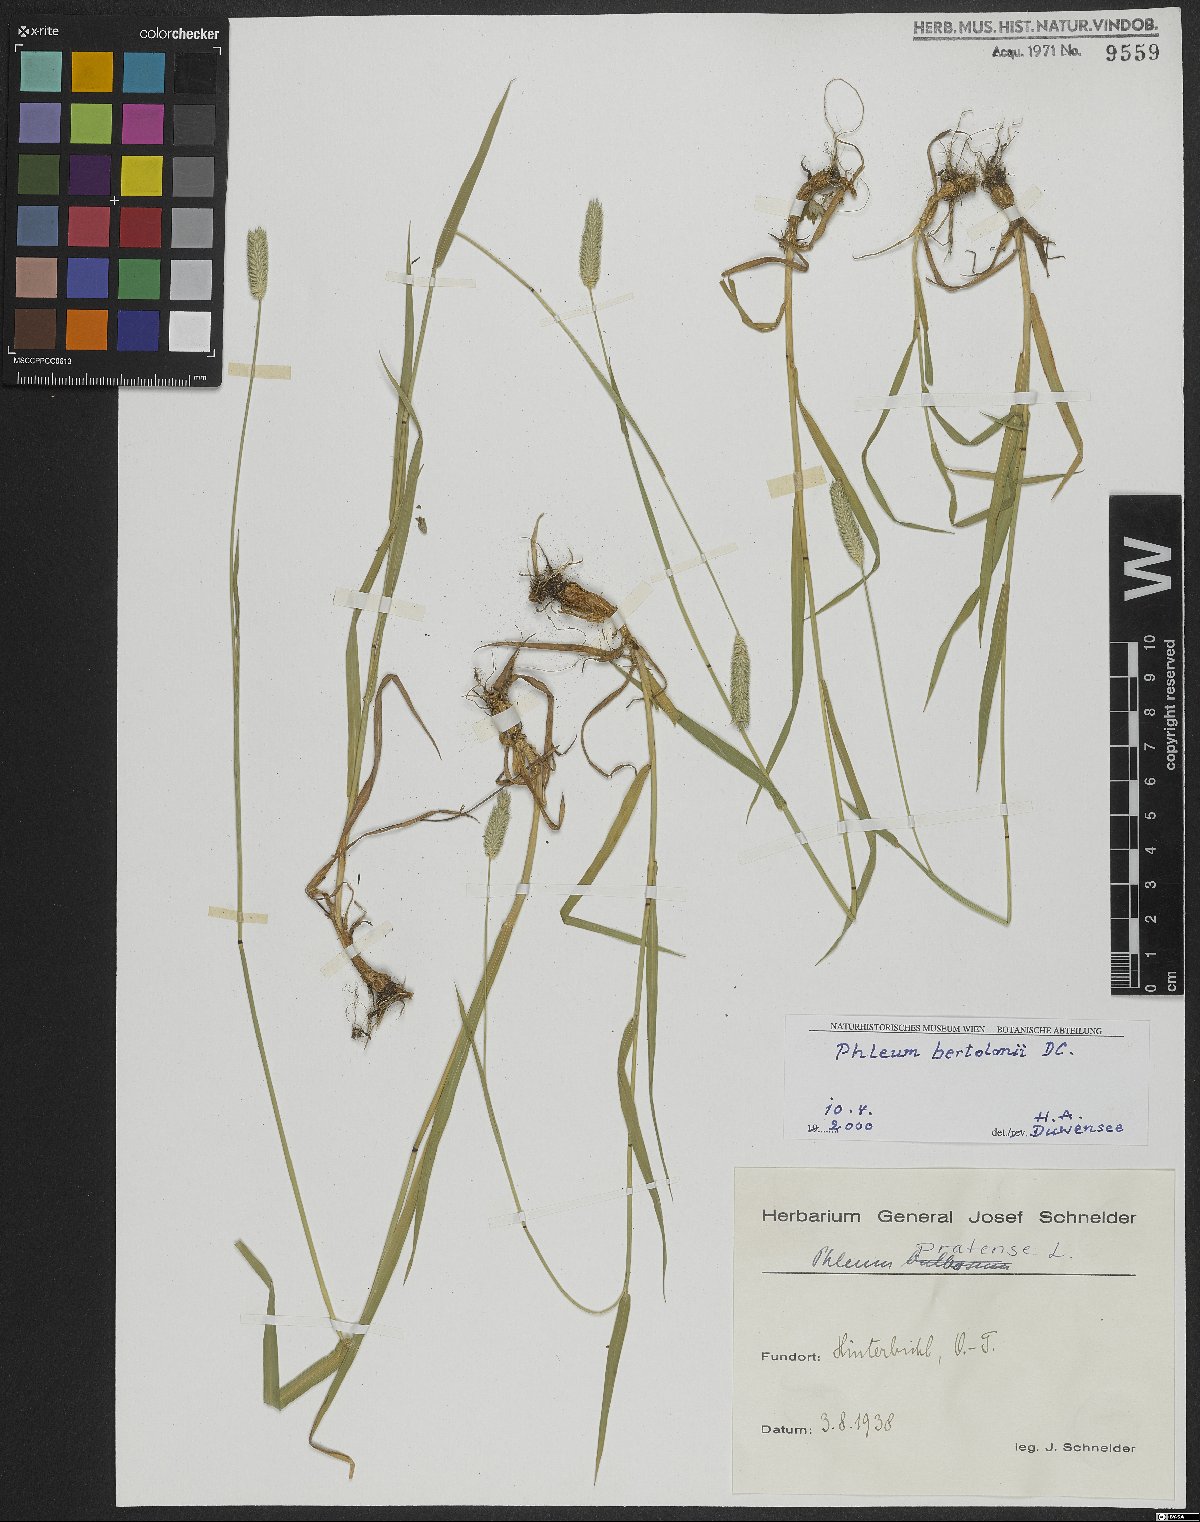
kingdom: Plantae
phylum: Tracheophyta
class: Liliopsida
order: Poales
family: Poaceae
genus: Phleum
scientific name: Phleum pratense
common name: Timothy grass
